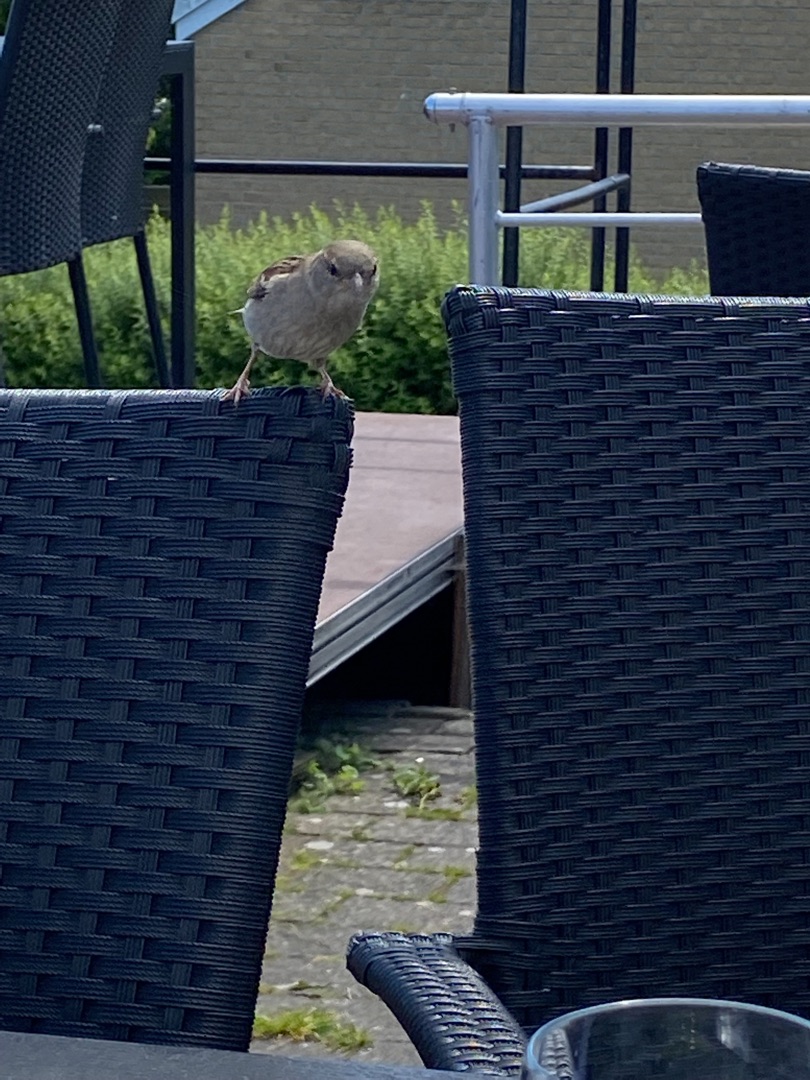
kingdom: Animalia
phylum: Chordata
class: Aves
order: Passeriformes
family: Passeridae
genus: Passer
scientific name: Passer domesticus
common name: Gråspurv
